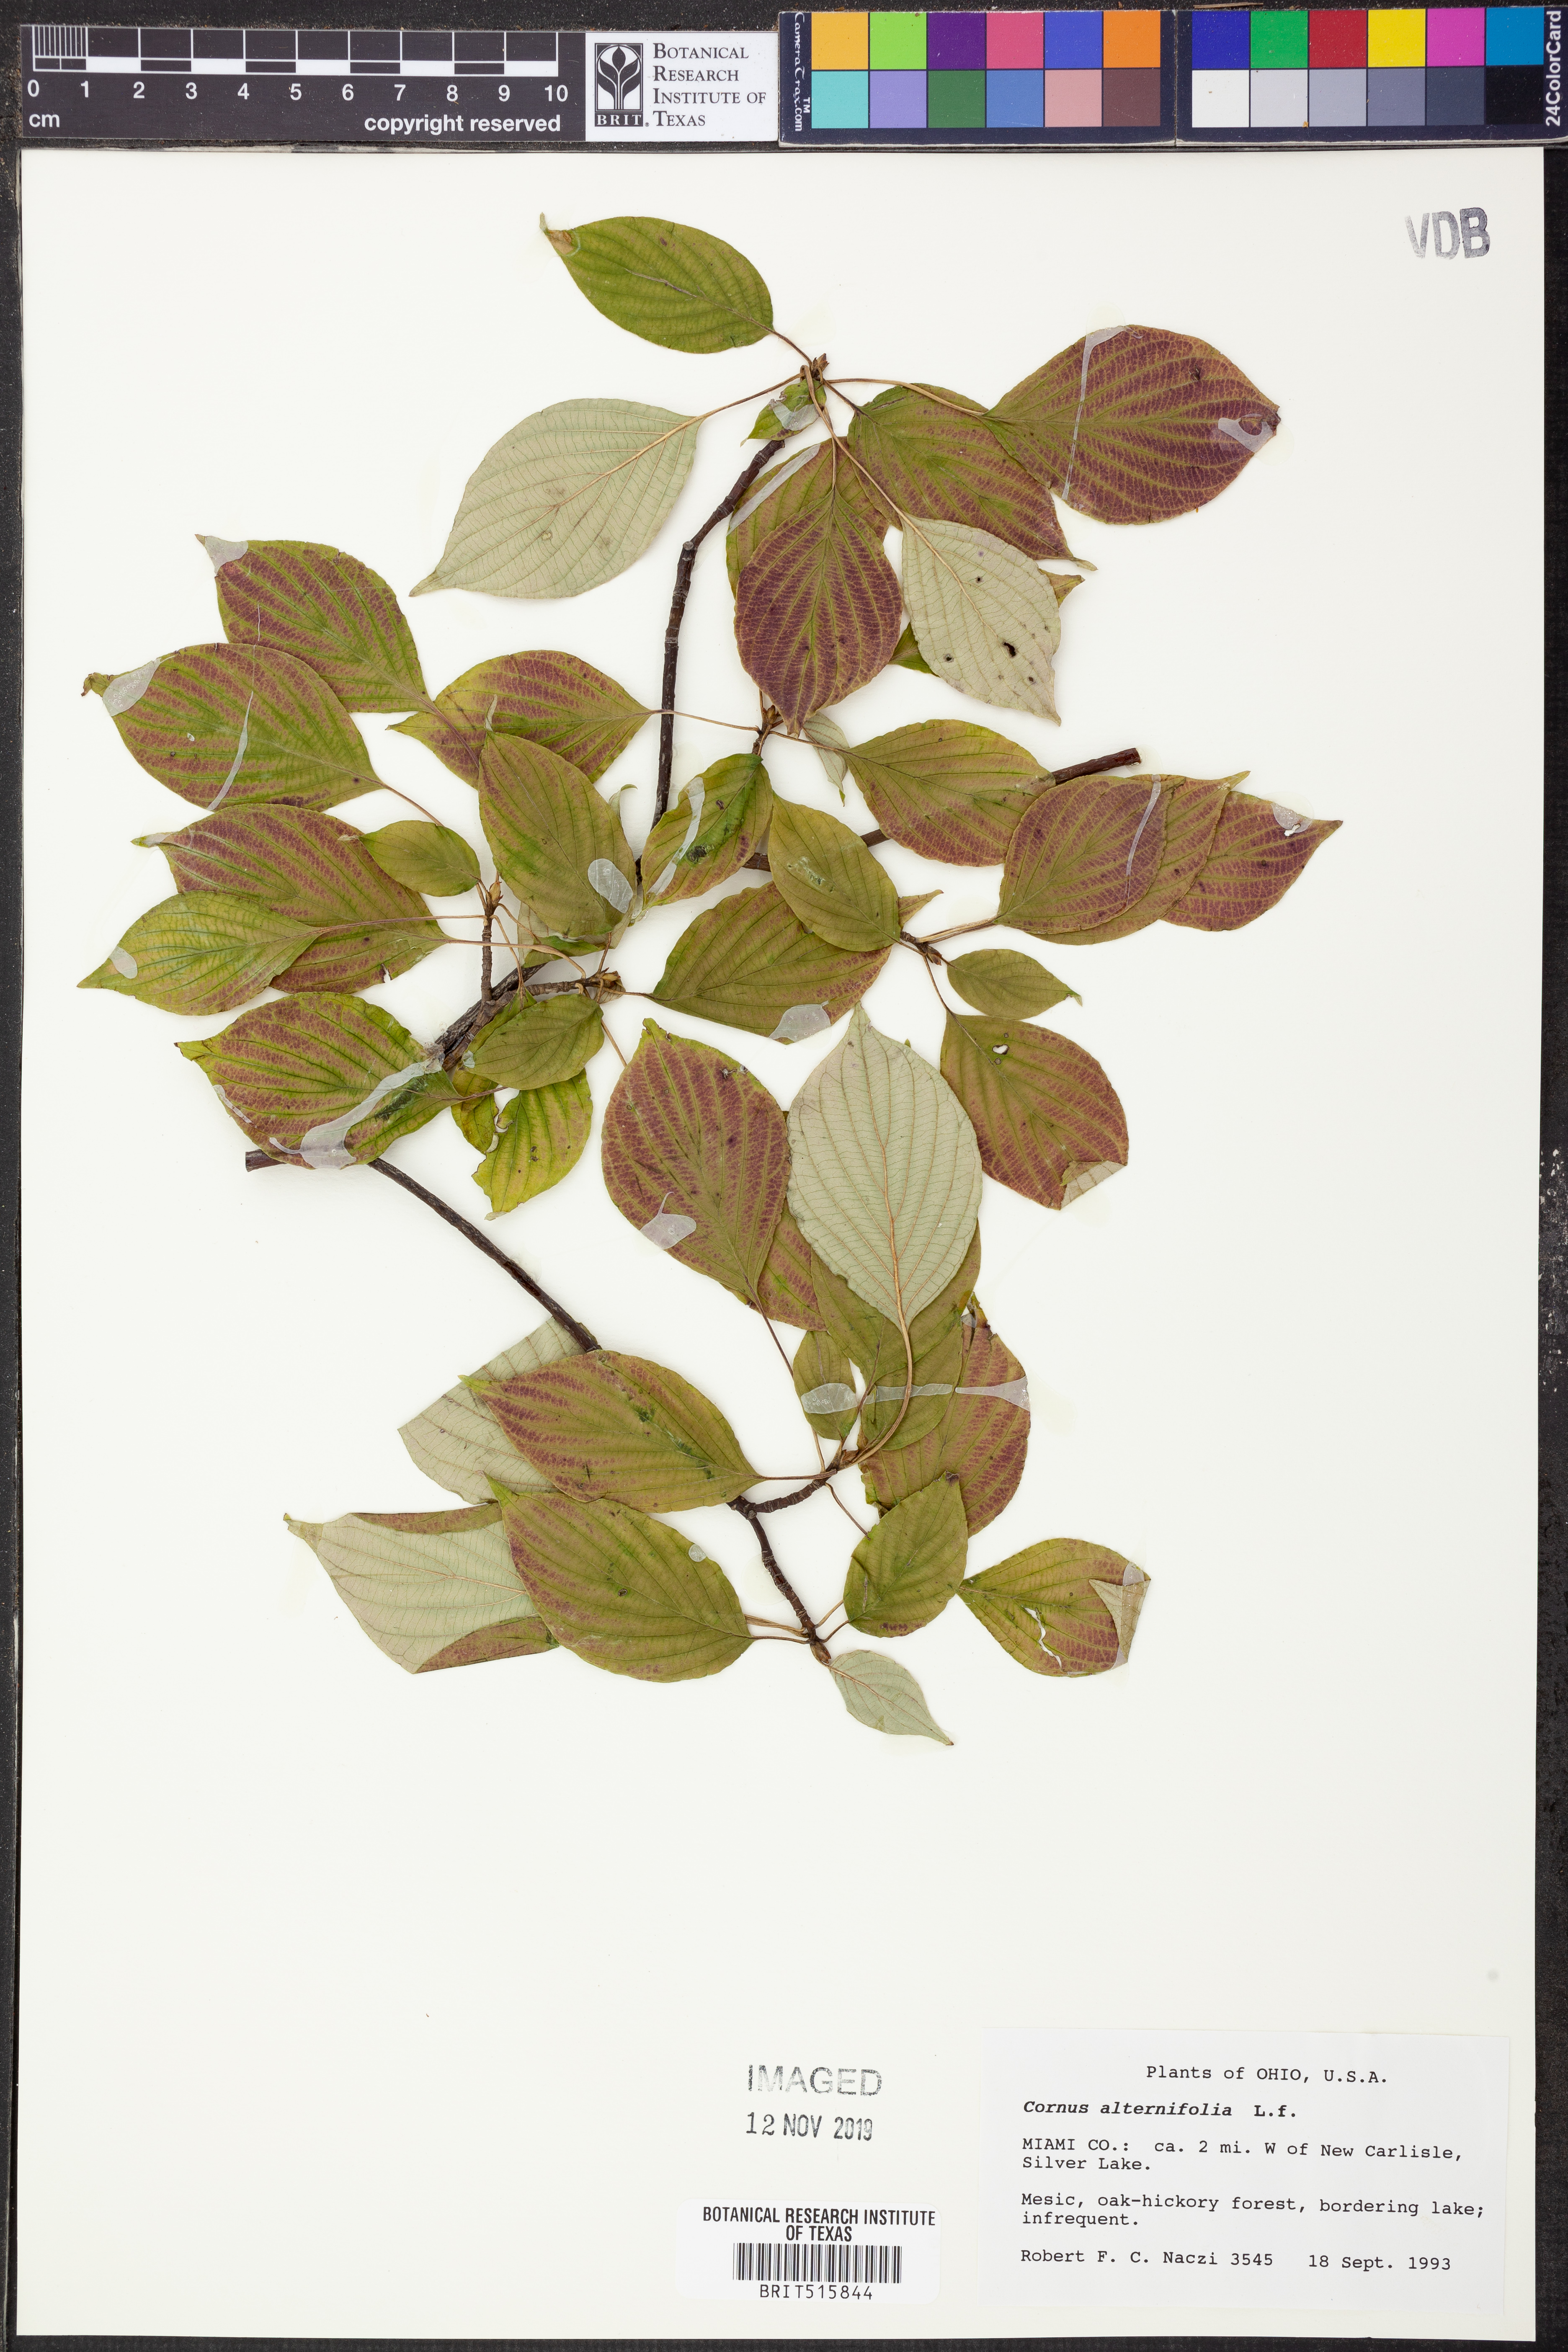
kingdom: Plantae
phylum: Tracheophyta
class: Magnoliopsida
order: Cornales
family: Cornaceae
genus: Cornus
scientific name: Cornus alternifolia
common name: Pagoda dogwood
